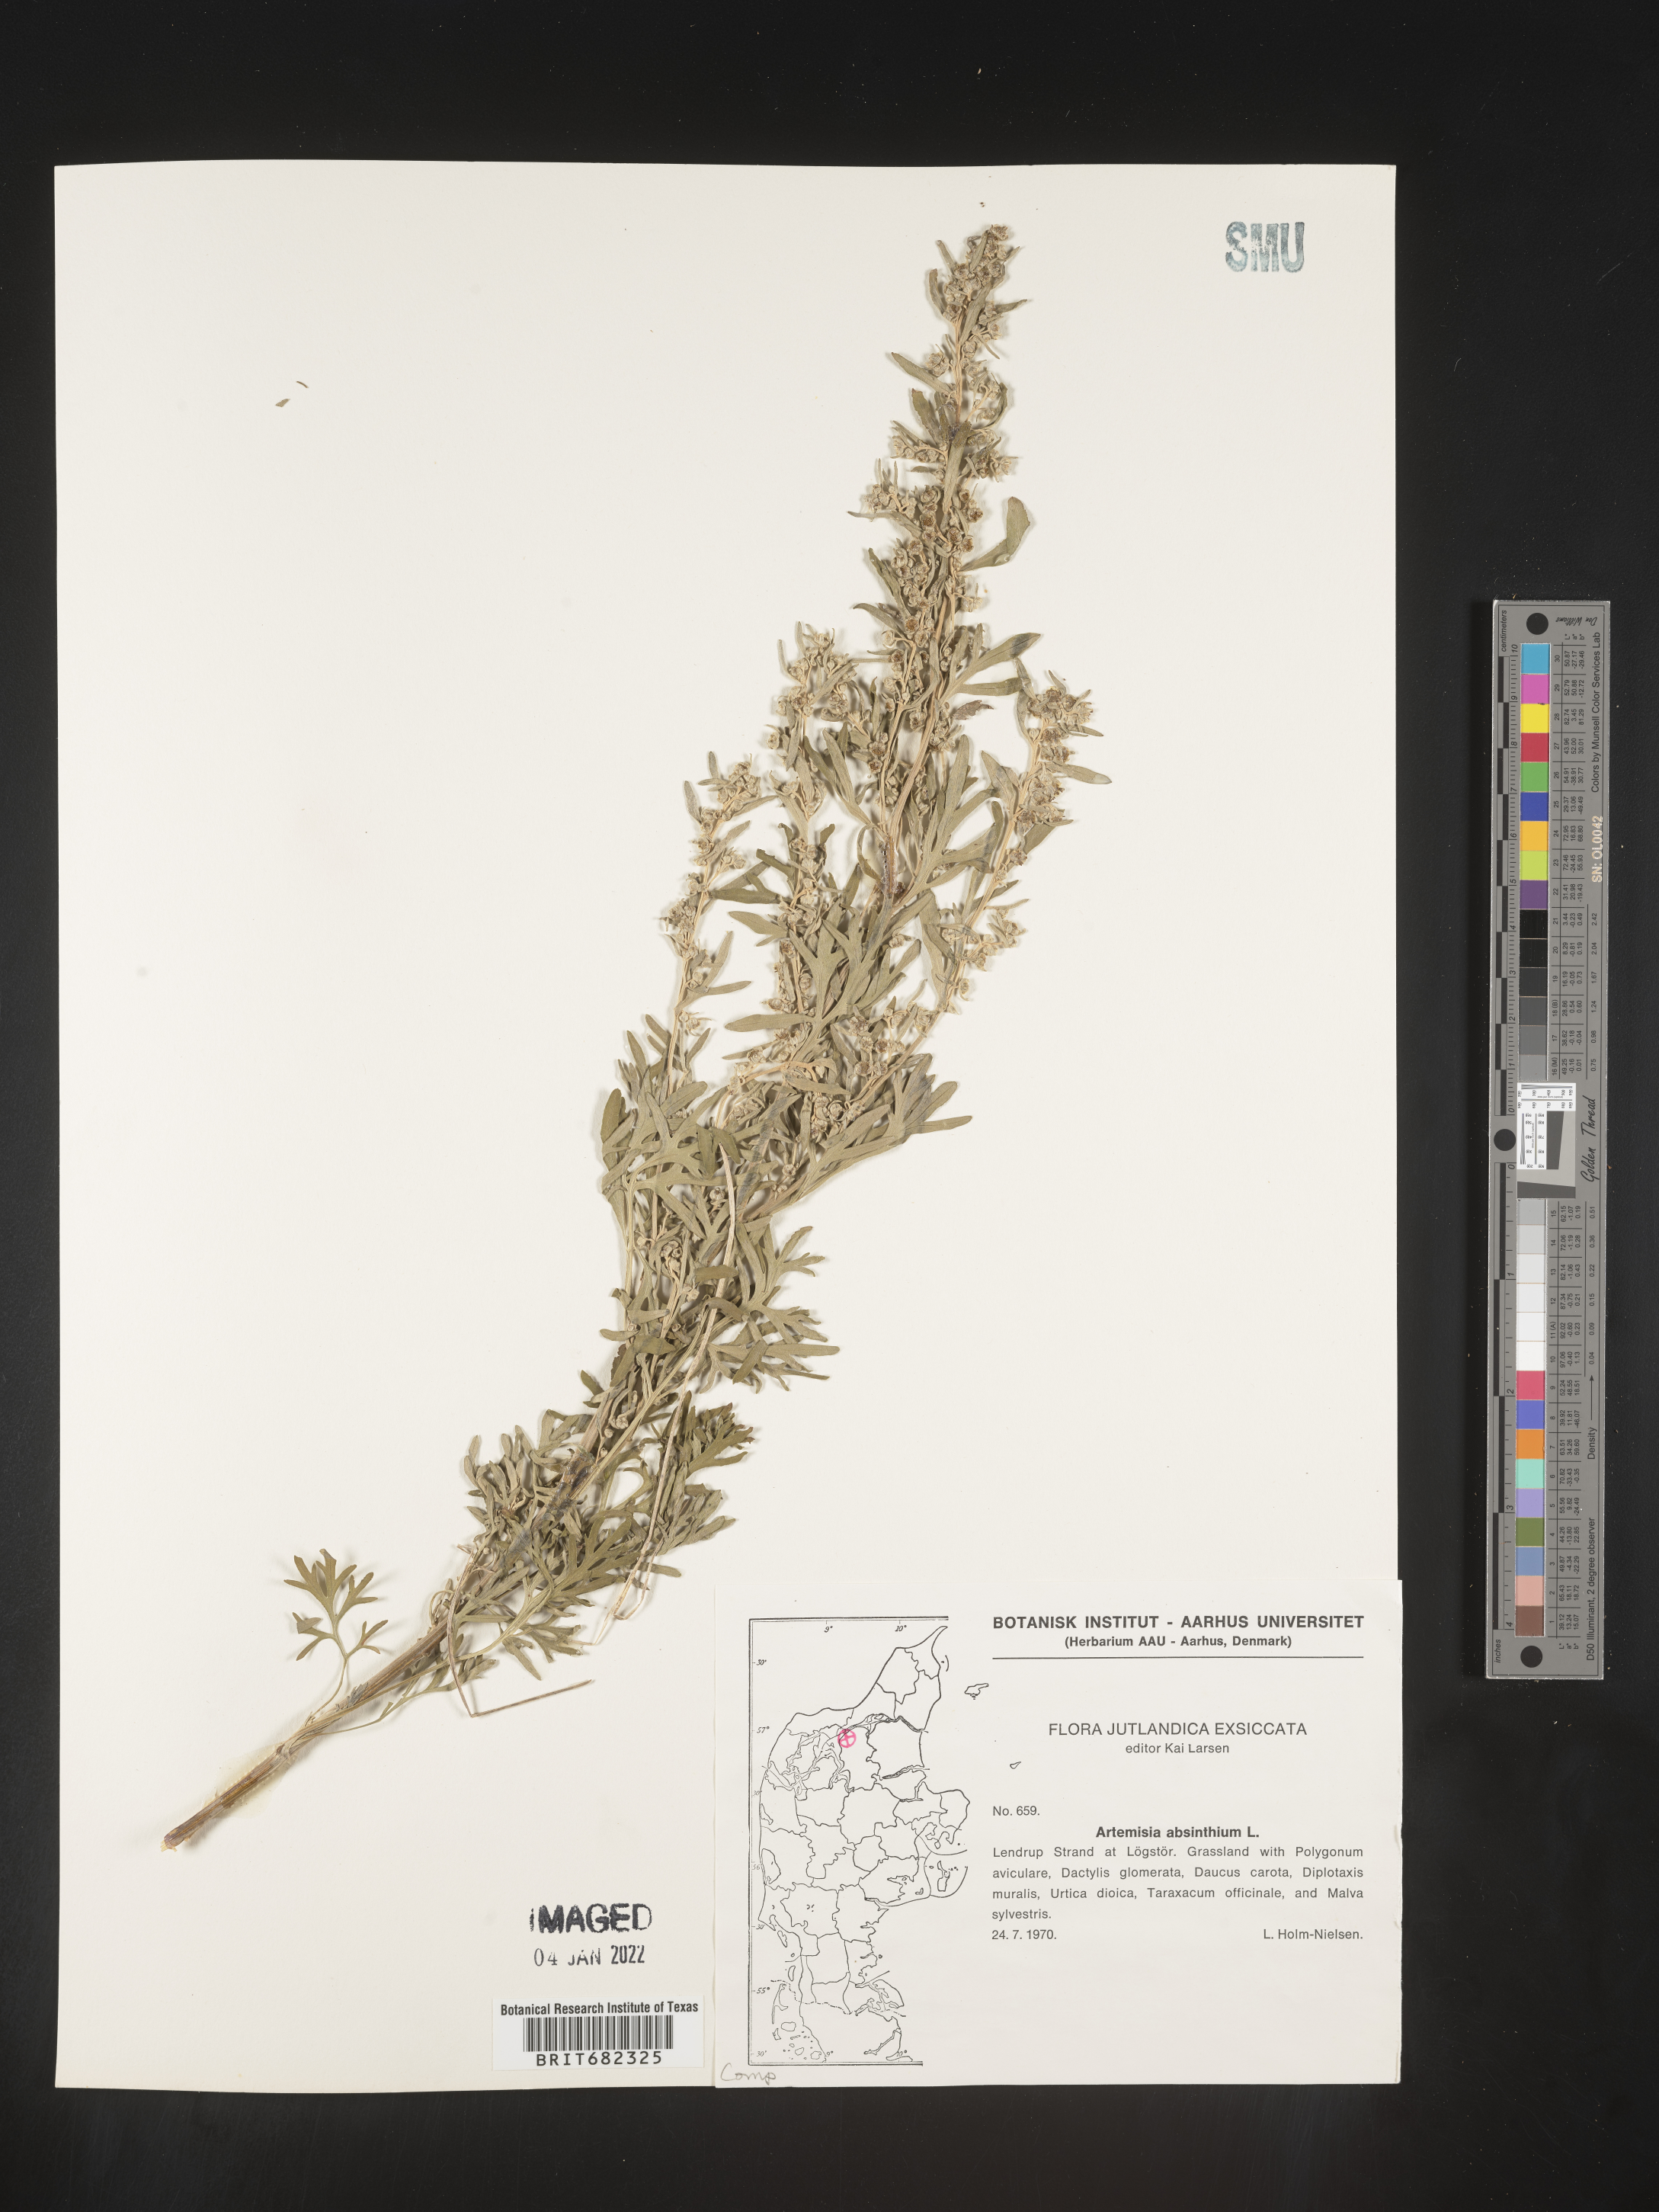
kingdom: Plantae
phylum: Tracheophyta
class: Magnoliopsida
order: Asterales
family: Asteraceae
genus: Artemisia
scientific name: Artemisia
